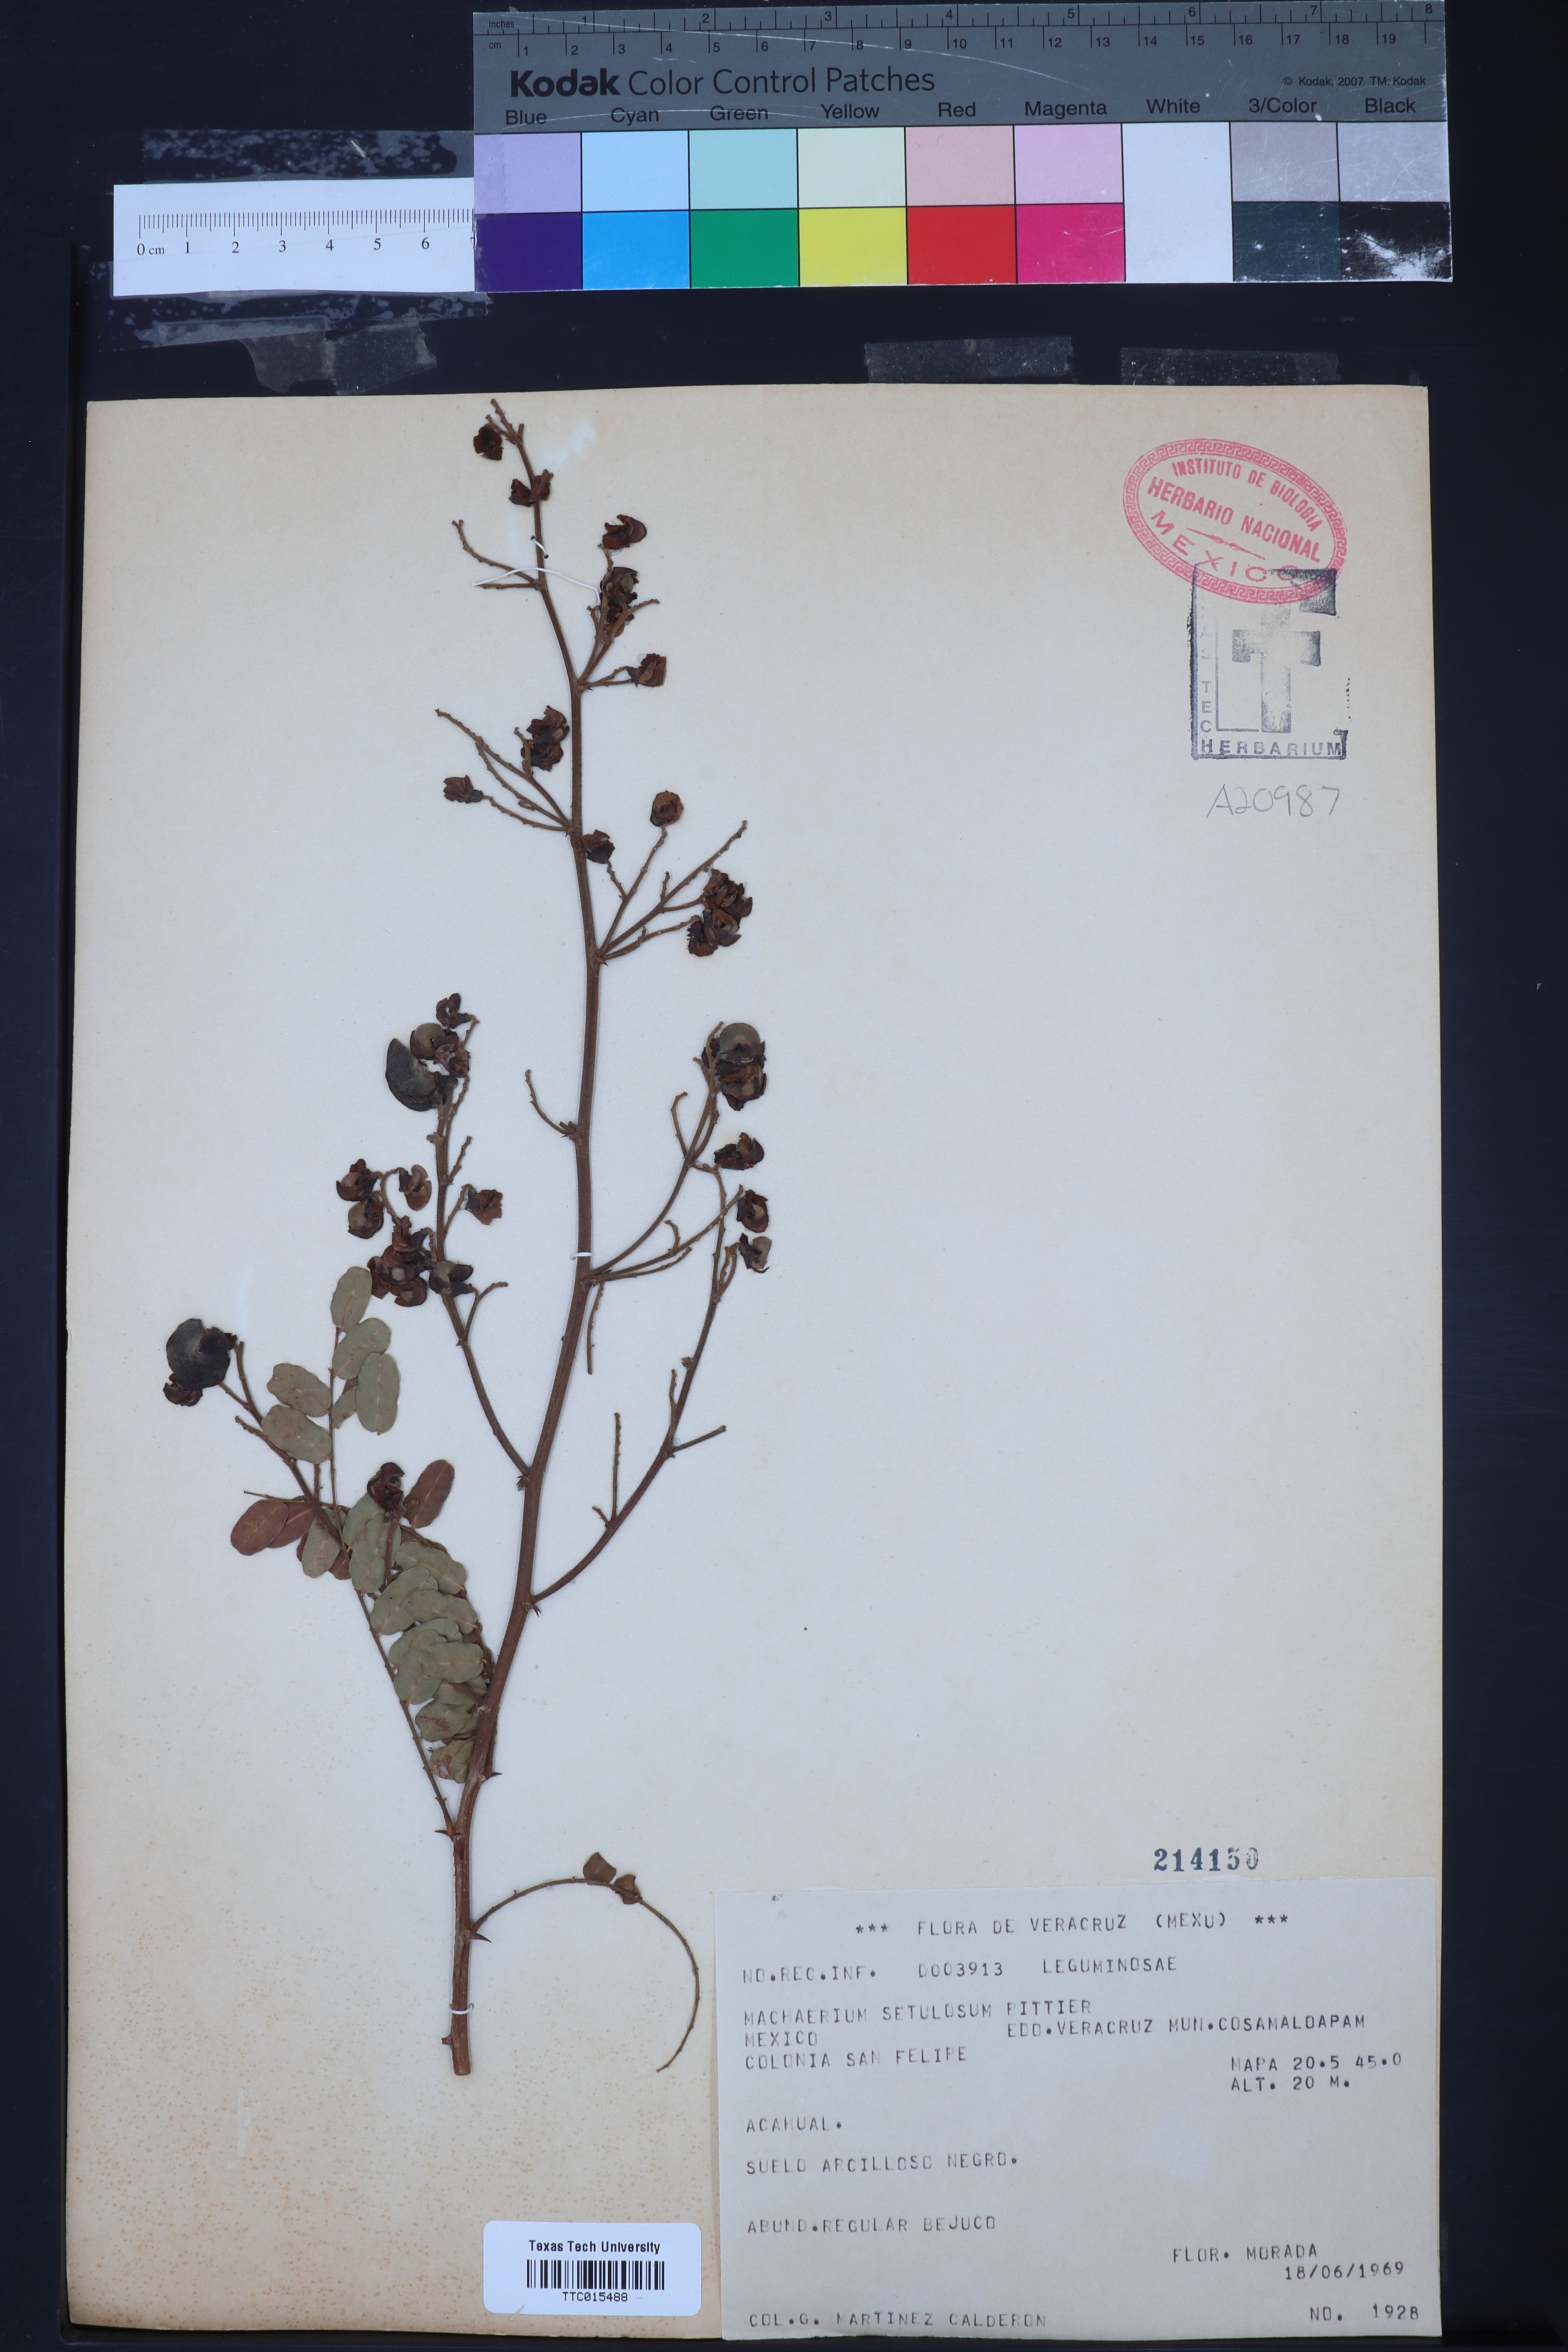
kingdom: Plantae
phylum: Tracheophyta
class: Magnoliopsida
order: Fabales
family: Fabaceae
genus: Machaerium
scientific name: Machaerium isadelphum
